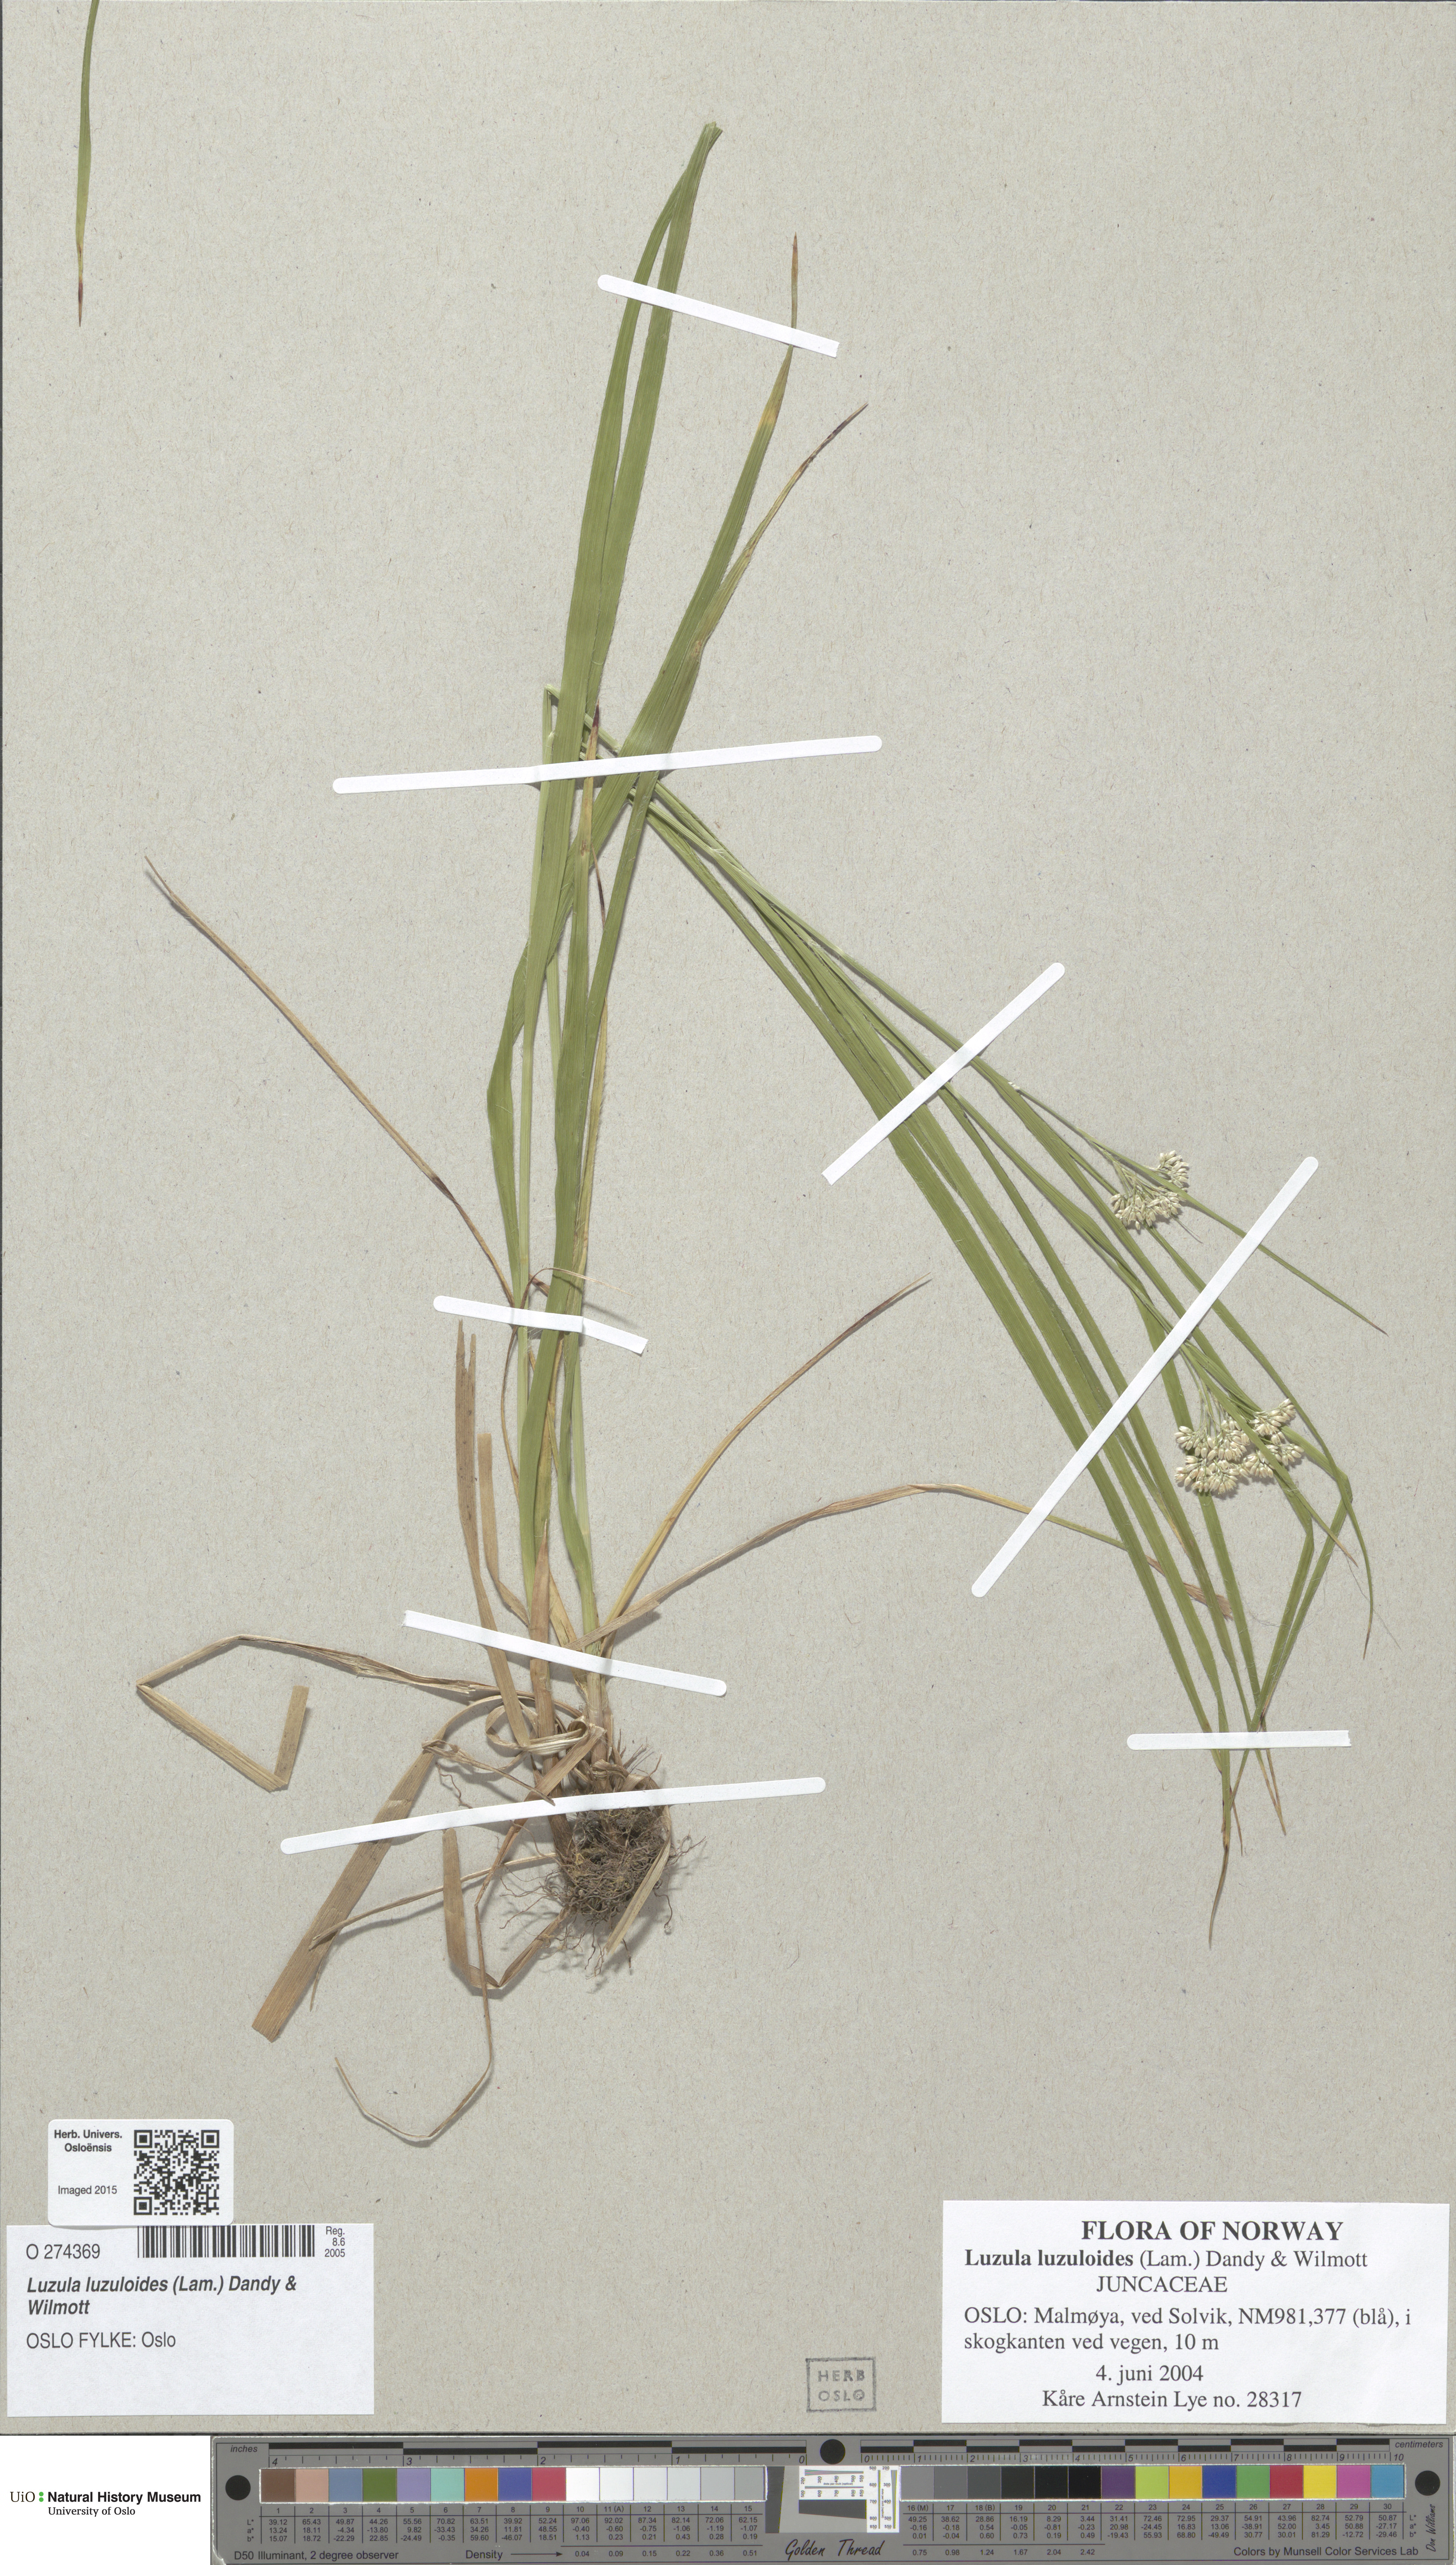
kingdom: Plantae
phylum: Tracheophyta
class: Liliopsida
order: Poales
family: Juncaceae
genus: Luzula
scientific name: Luzula luzuloides
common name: White wood-rush
